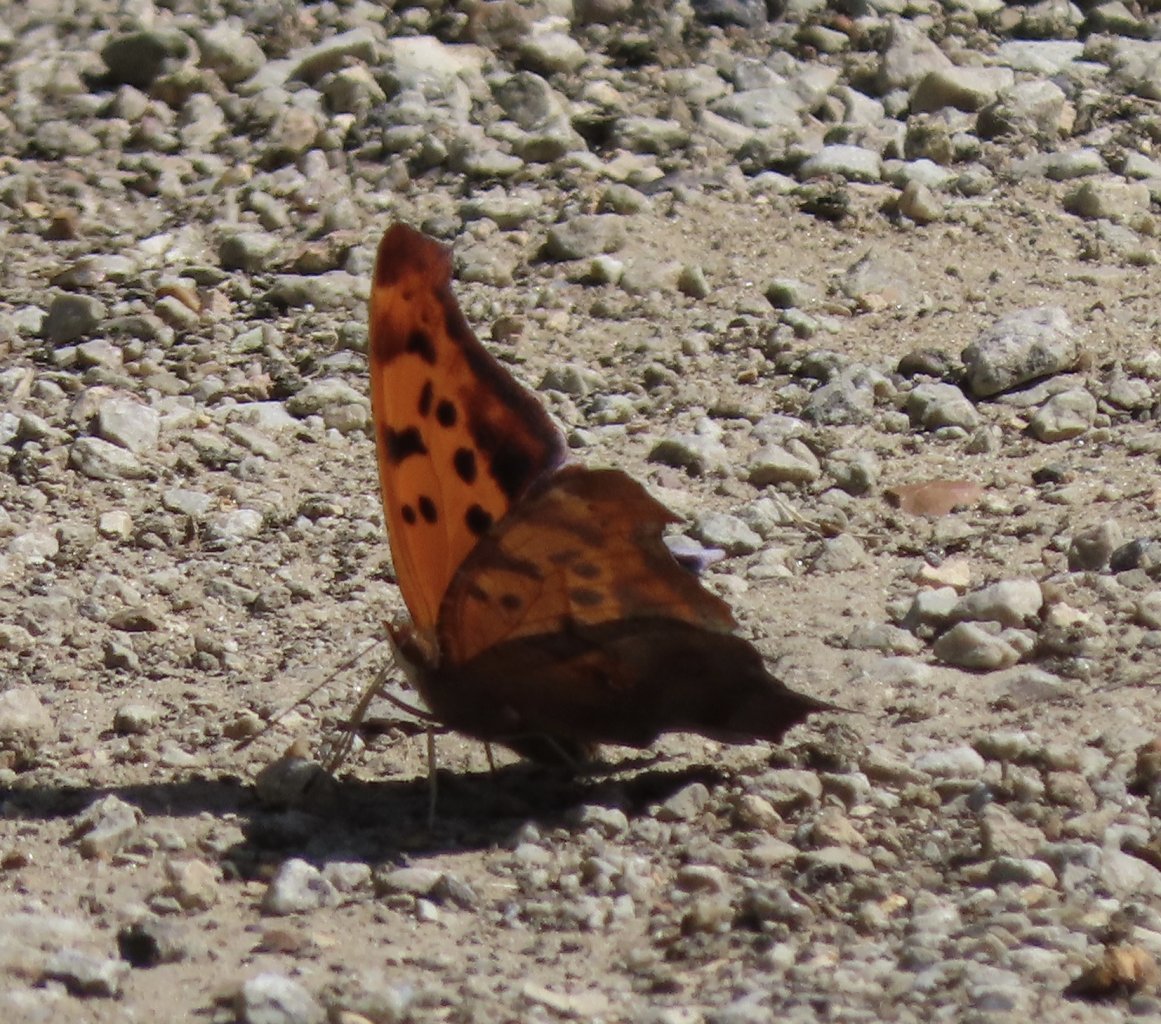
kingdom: Animalia
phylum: Arthropoda
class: Insecta
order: Lepidoptera
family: Nymphalidae
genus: Polygonia
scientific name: Polygonia interrogationis
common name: Question Mark
